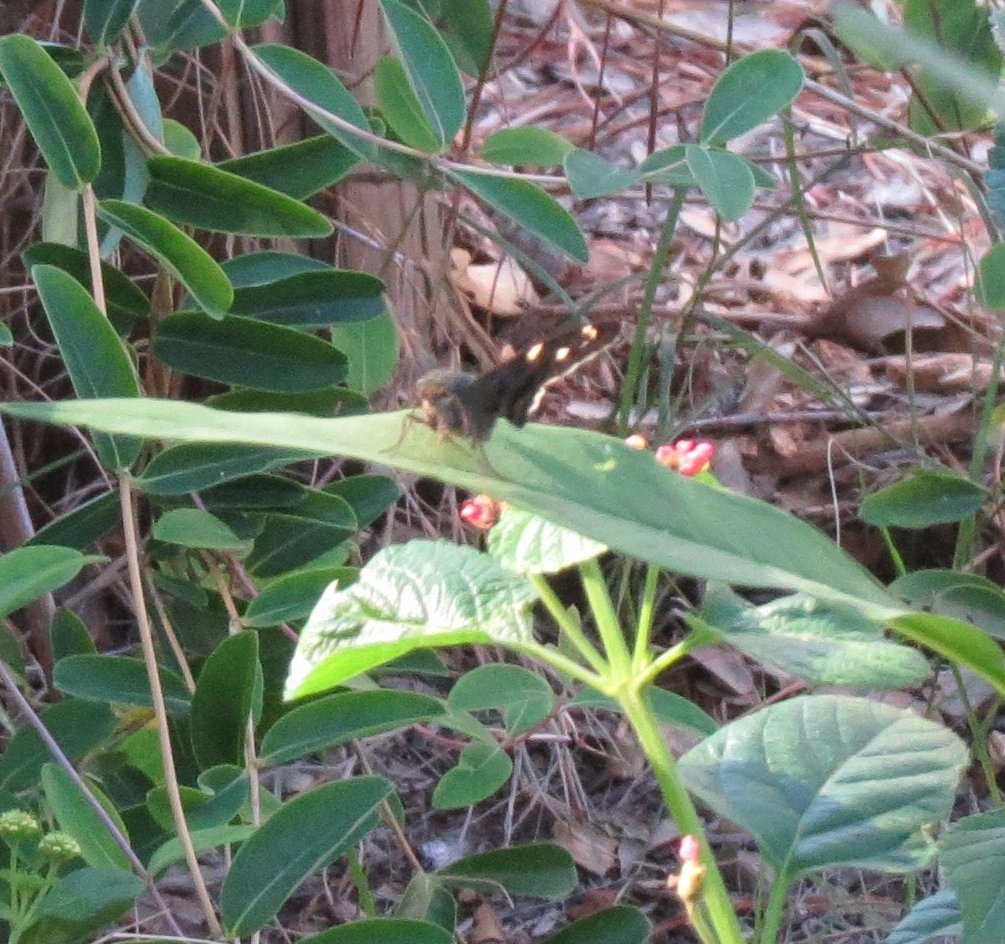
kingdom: Animalia
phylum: Arthropoda
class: Insecta
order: Lepidoptera
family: Hesperiidae
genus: Urbanus
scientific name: Urbanus proteus
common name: Long-tailed Skipper
